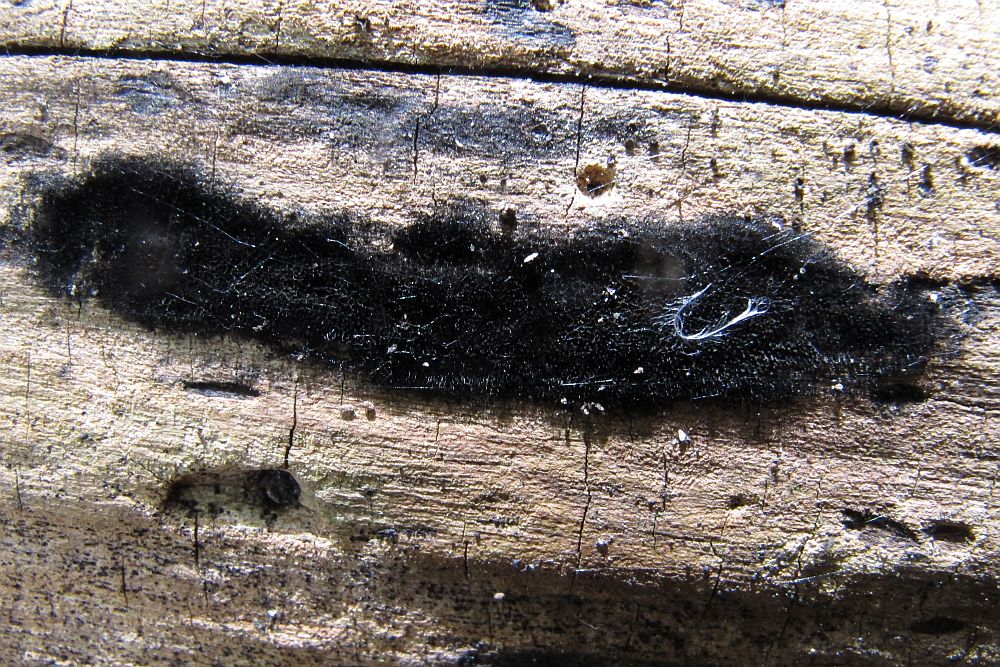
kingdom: Fungi
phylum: Ascomycota
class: Sordariomycetes
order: Coronophorales
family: Chaetosphaerellaceae
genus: Chaetosphaerella
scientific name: Chaetosphaerella phaeostroma
